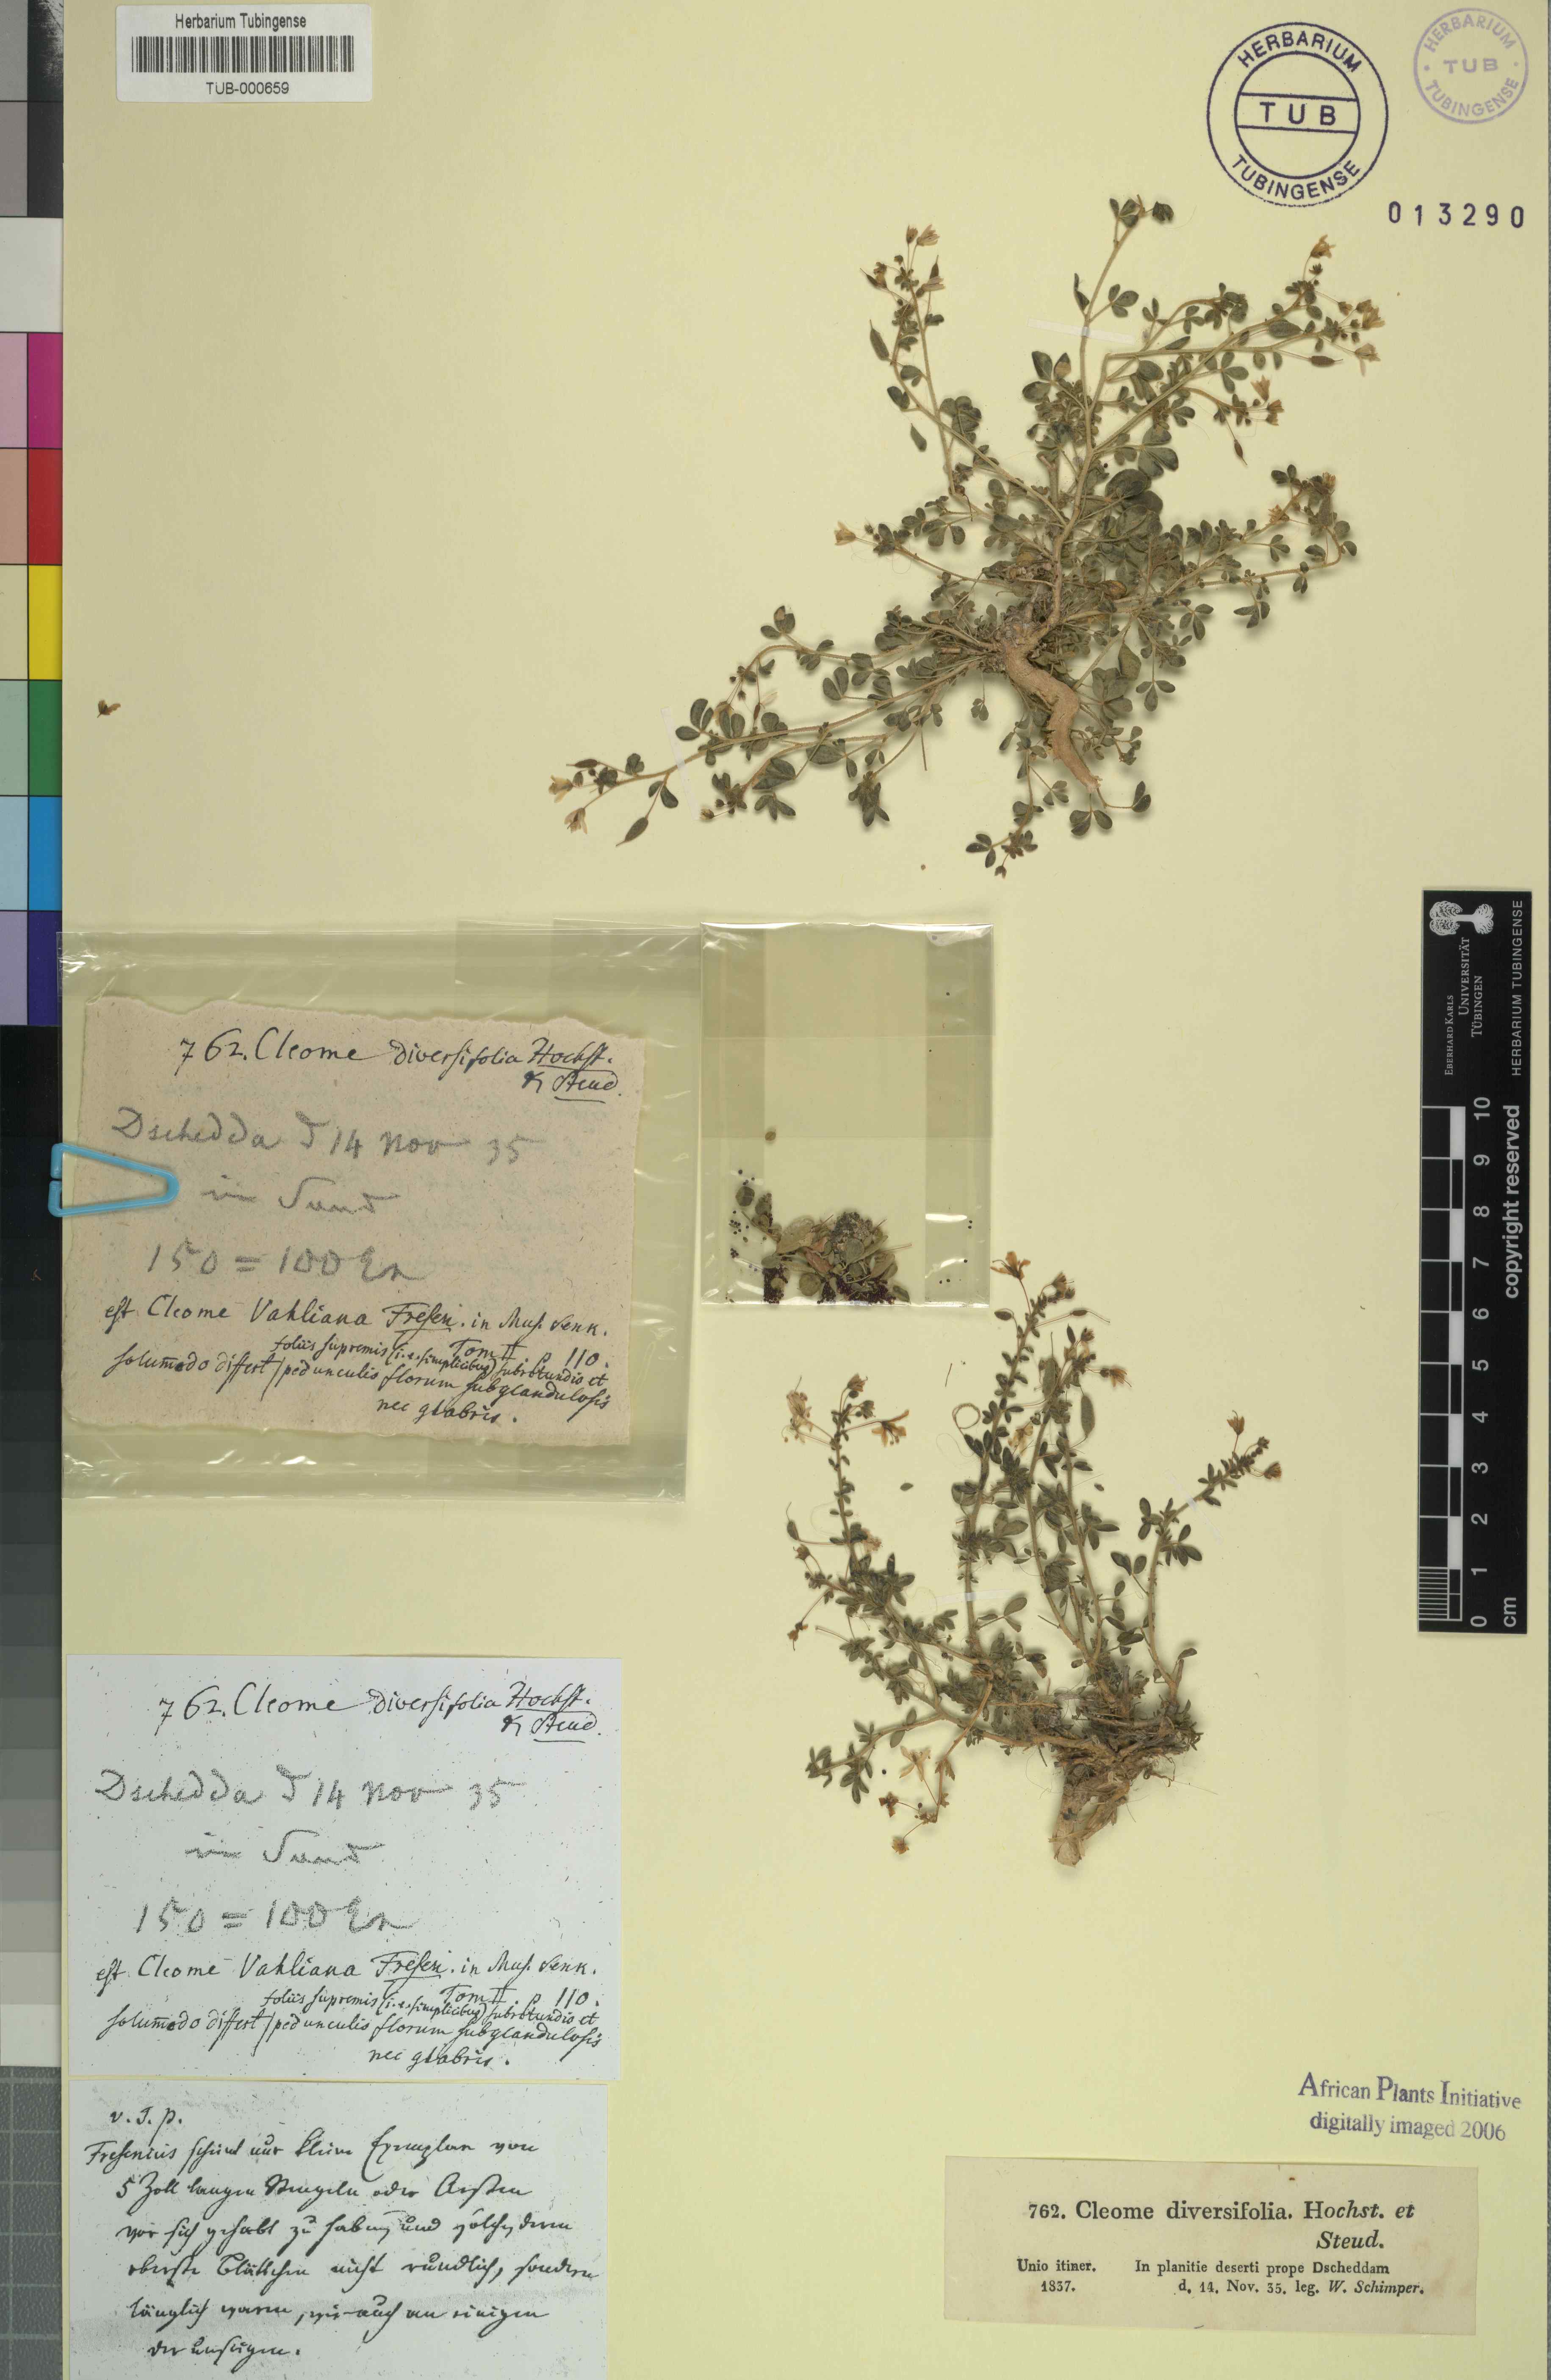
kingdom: Plantae
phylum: Tracheophyta
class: Magnoliopsida
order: Brassicales
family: Cleomaceae
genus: Stylidocleome
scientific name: Stylidocleome brachycarpa
